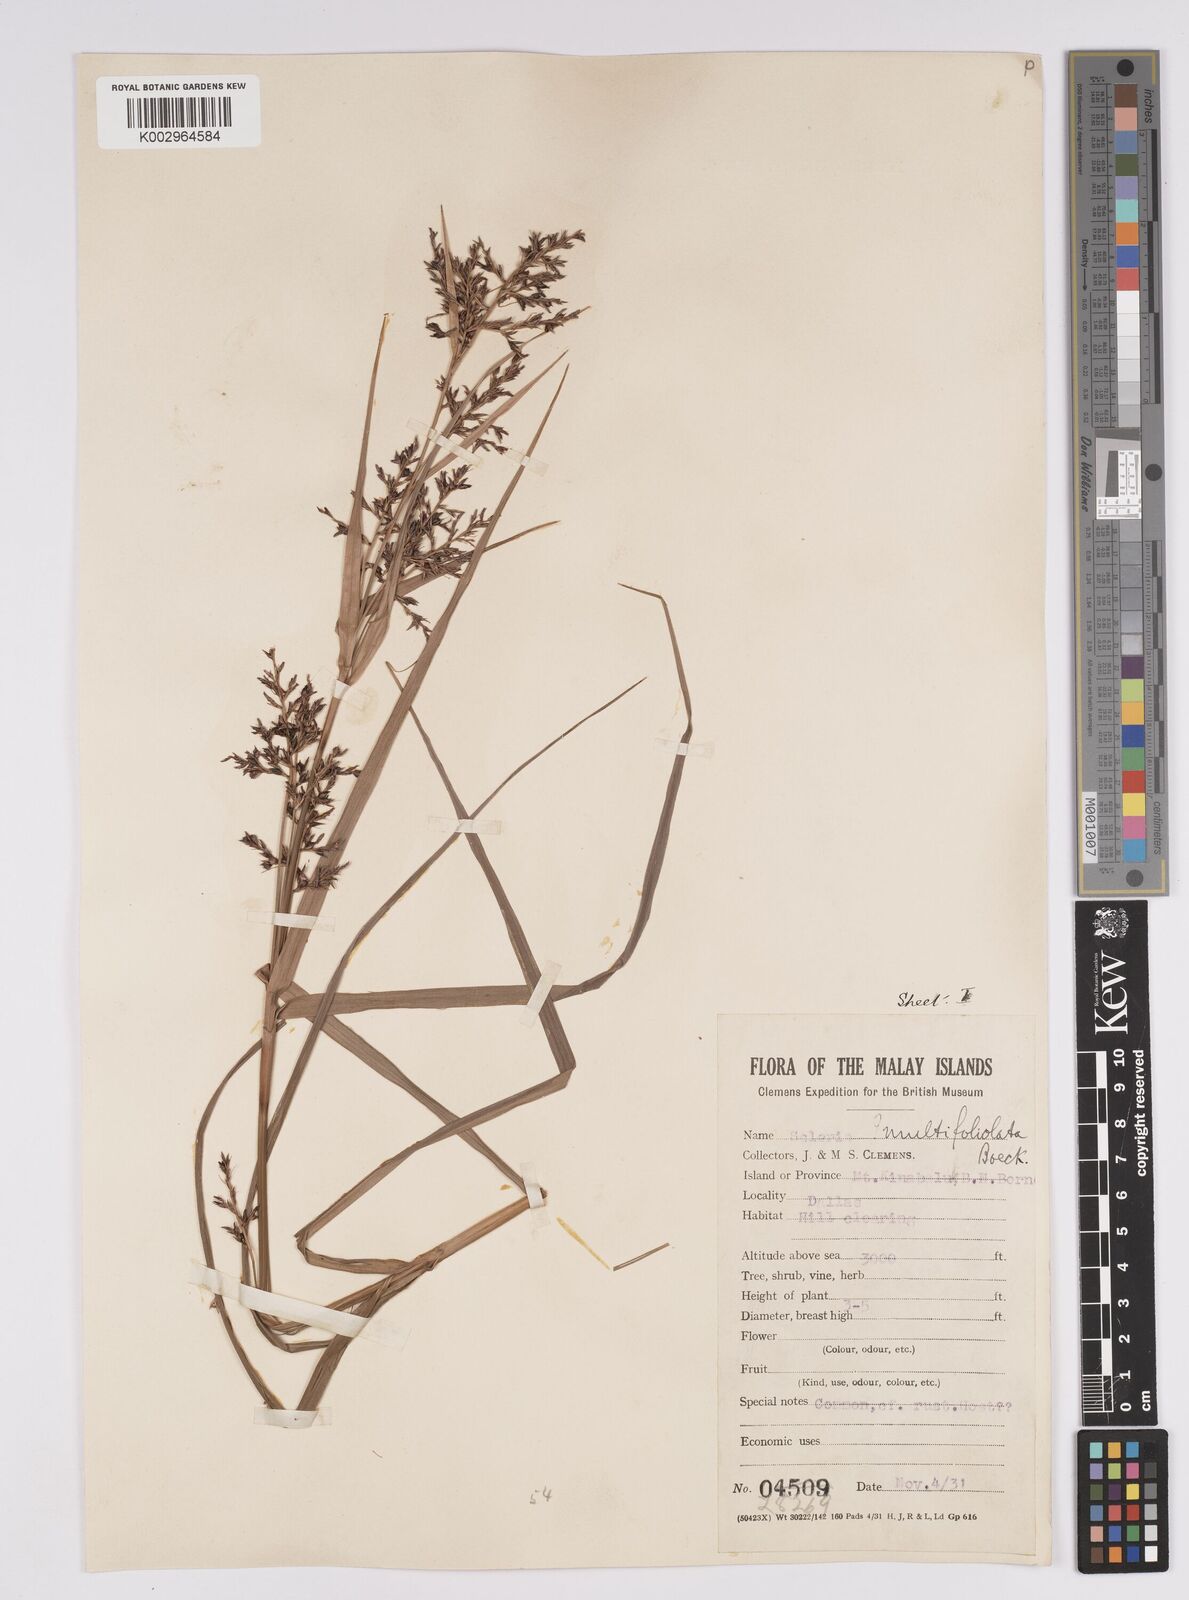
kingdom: Plantae
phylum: Tracheophyta
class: Liliopsida
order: Poales
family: Cyperaceae
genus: Scleria
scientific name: Scleria purpurascens
